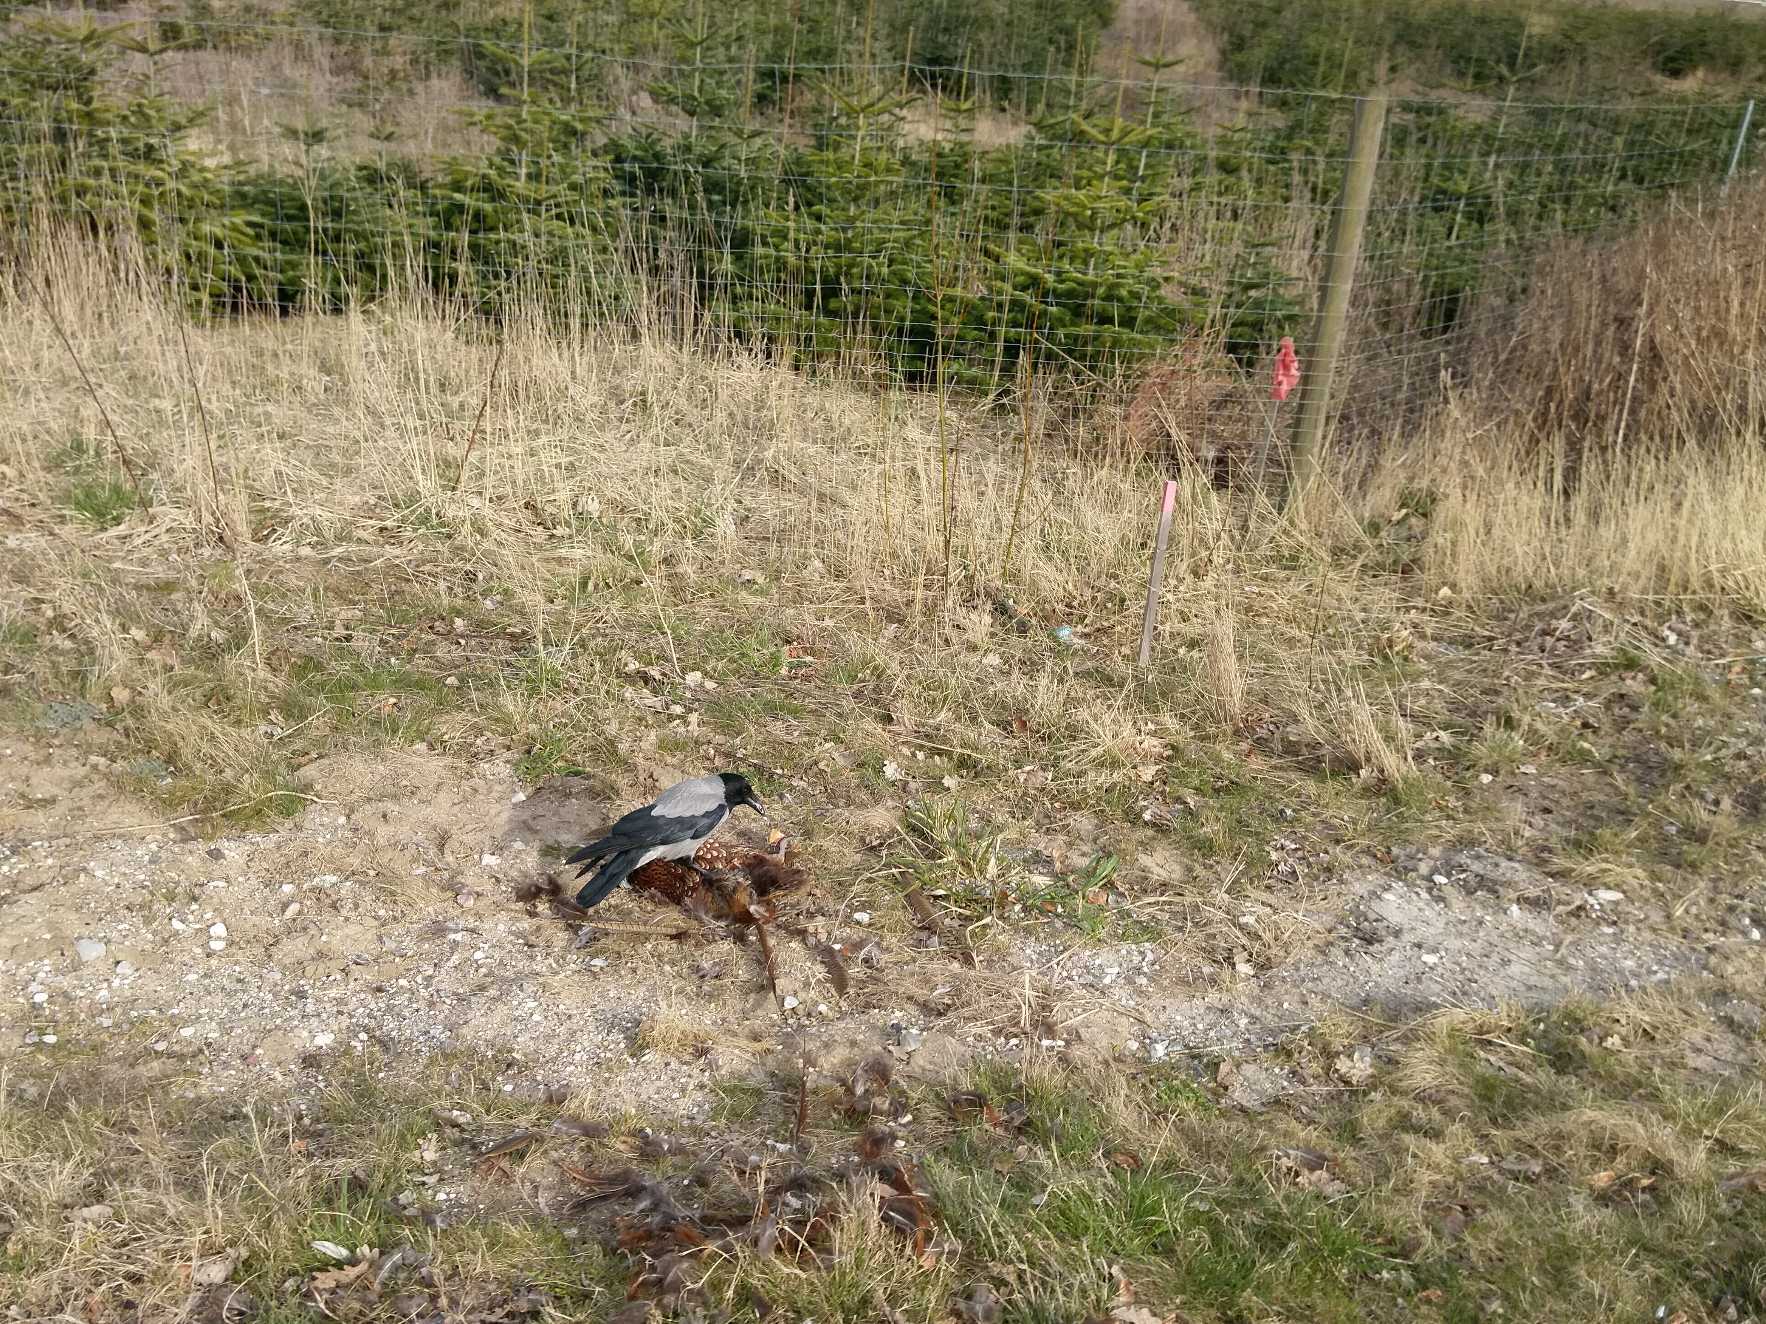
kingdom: Animalia
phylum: Chordata
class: Aves
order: Passeriformes
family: Corvidae
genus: Corvus
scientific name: Corvus cornix
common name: Gråkrage
